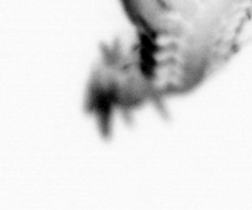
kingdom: Animalia
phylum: Annelida
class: Polychaeta
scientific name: Polychaeta
